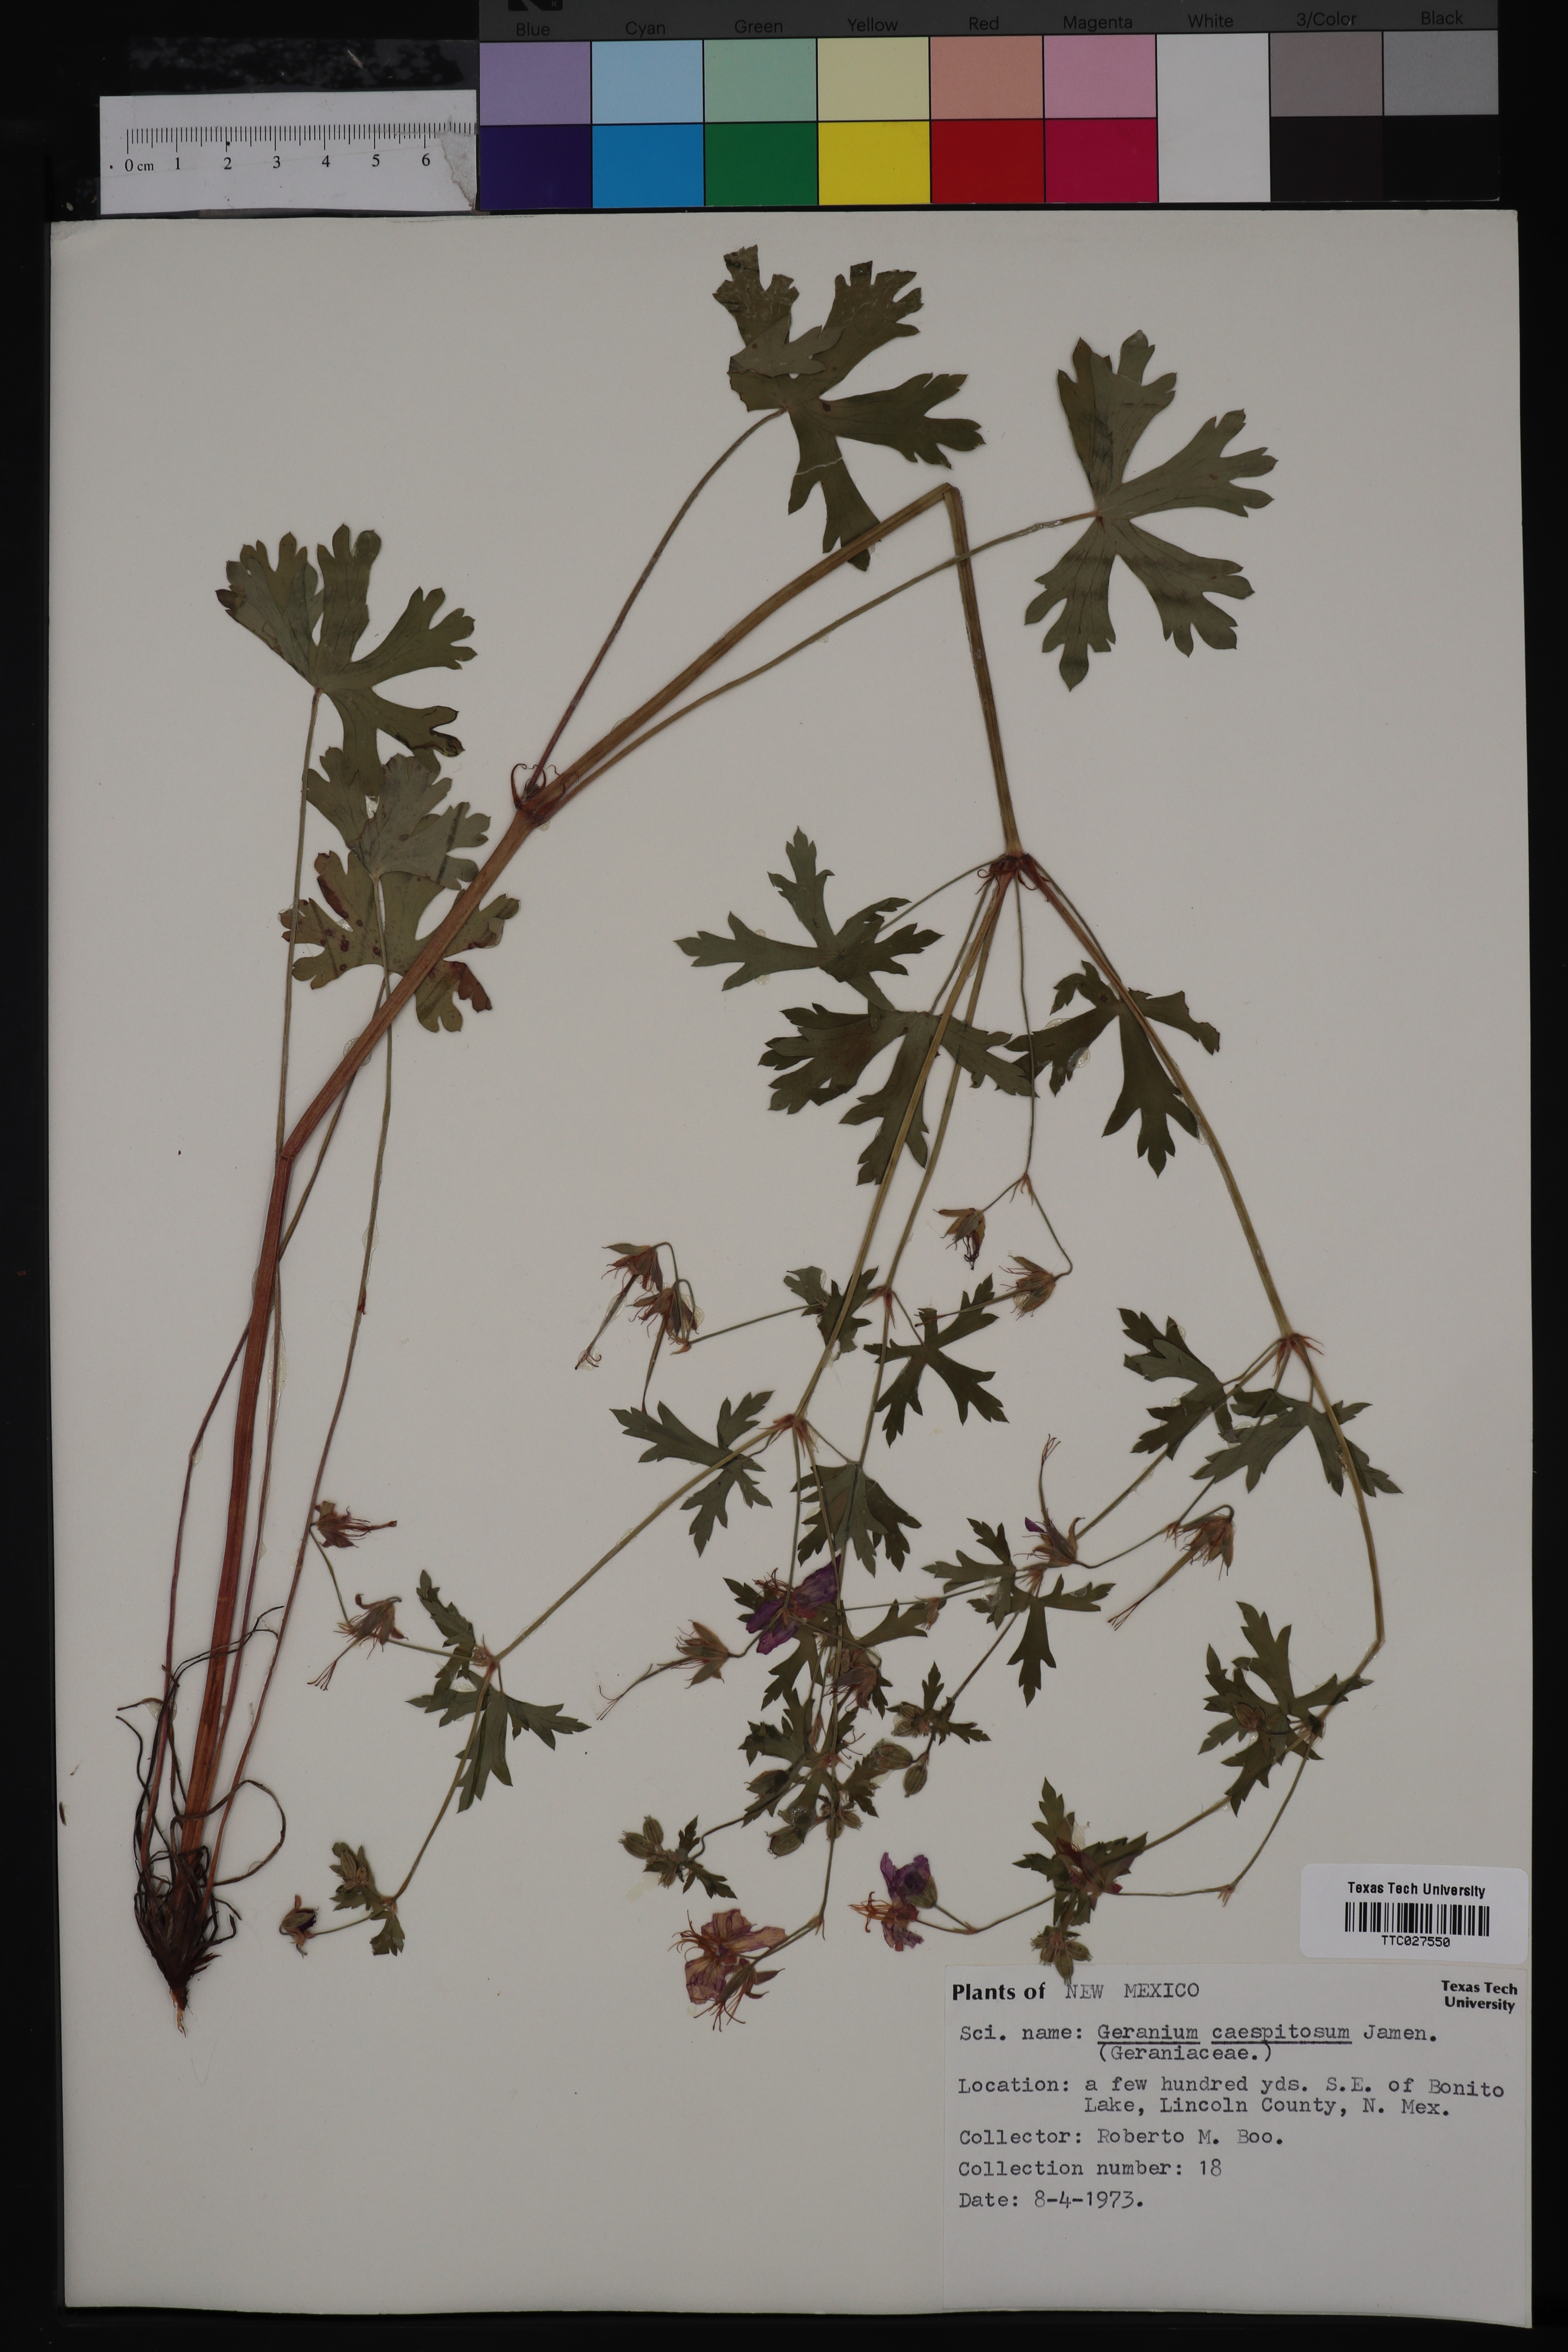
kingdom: Plantae
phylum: Tracheophyta
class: Magnoliopsida
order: Geraniales
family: Geraniaceae
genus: Geranium
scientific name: Geranium caespitosum
